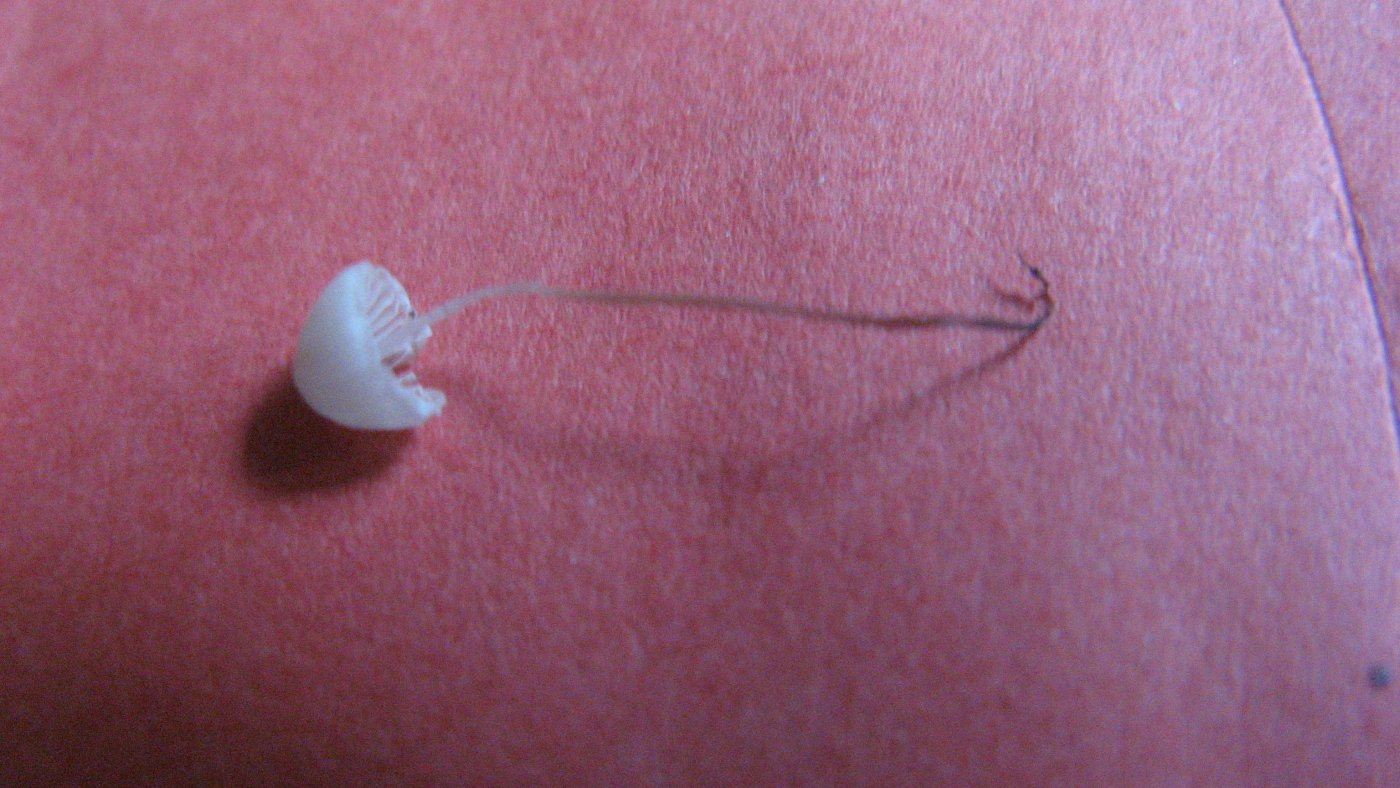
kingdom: Fungi
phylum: Basidiomycota
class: Agaricomycetes
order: Agaricales
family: Mycenaceae
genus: Mycena
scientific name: Mycena filopes
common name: jod-huesvamp
